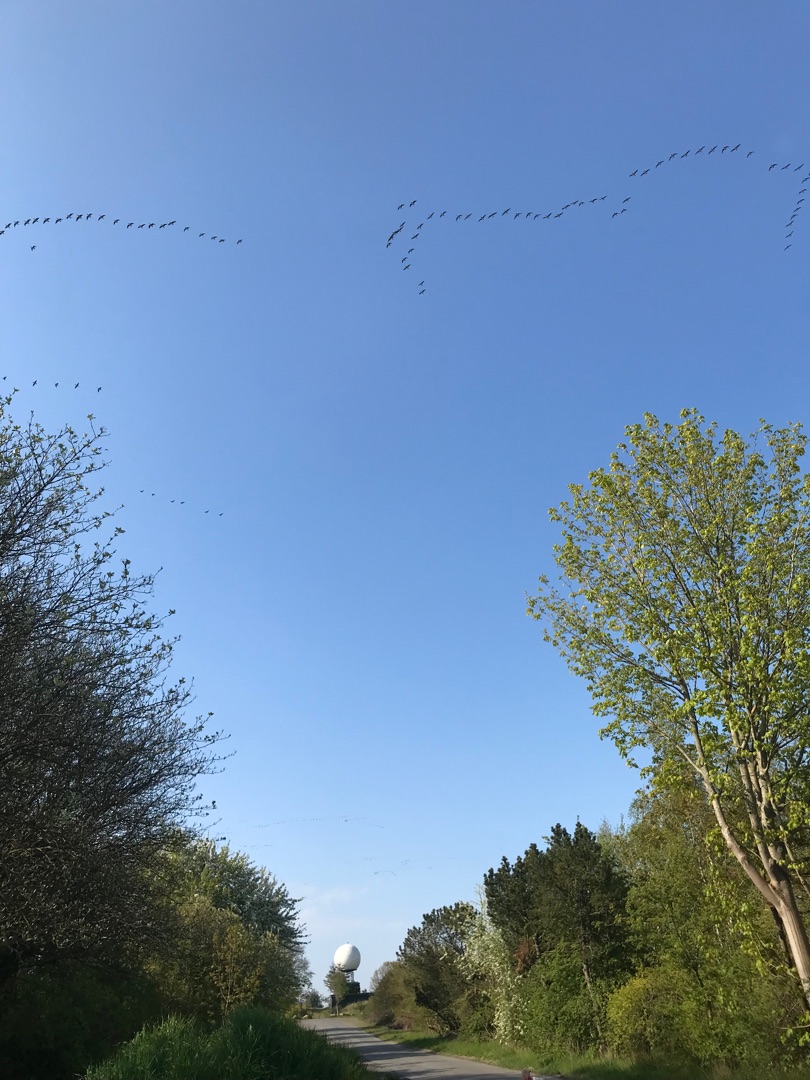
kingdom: Animalia
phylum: Chordata
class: Aves
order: Anseriformes
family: Anatidae
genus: Branta
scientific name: Branta leucopsis
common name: Bramgås
